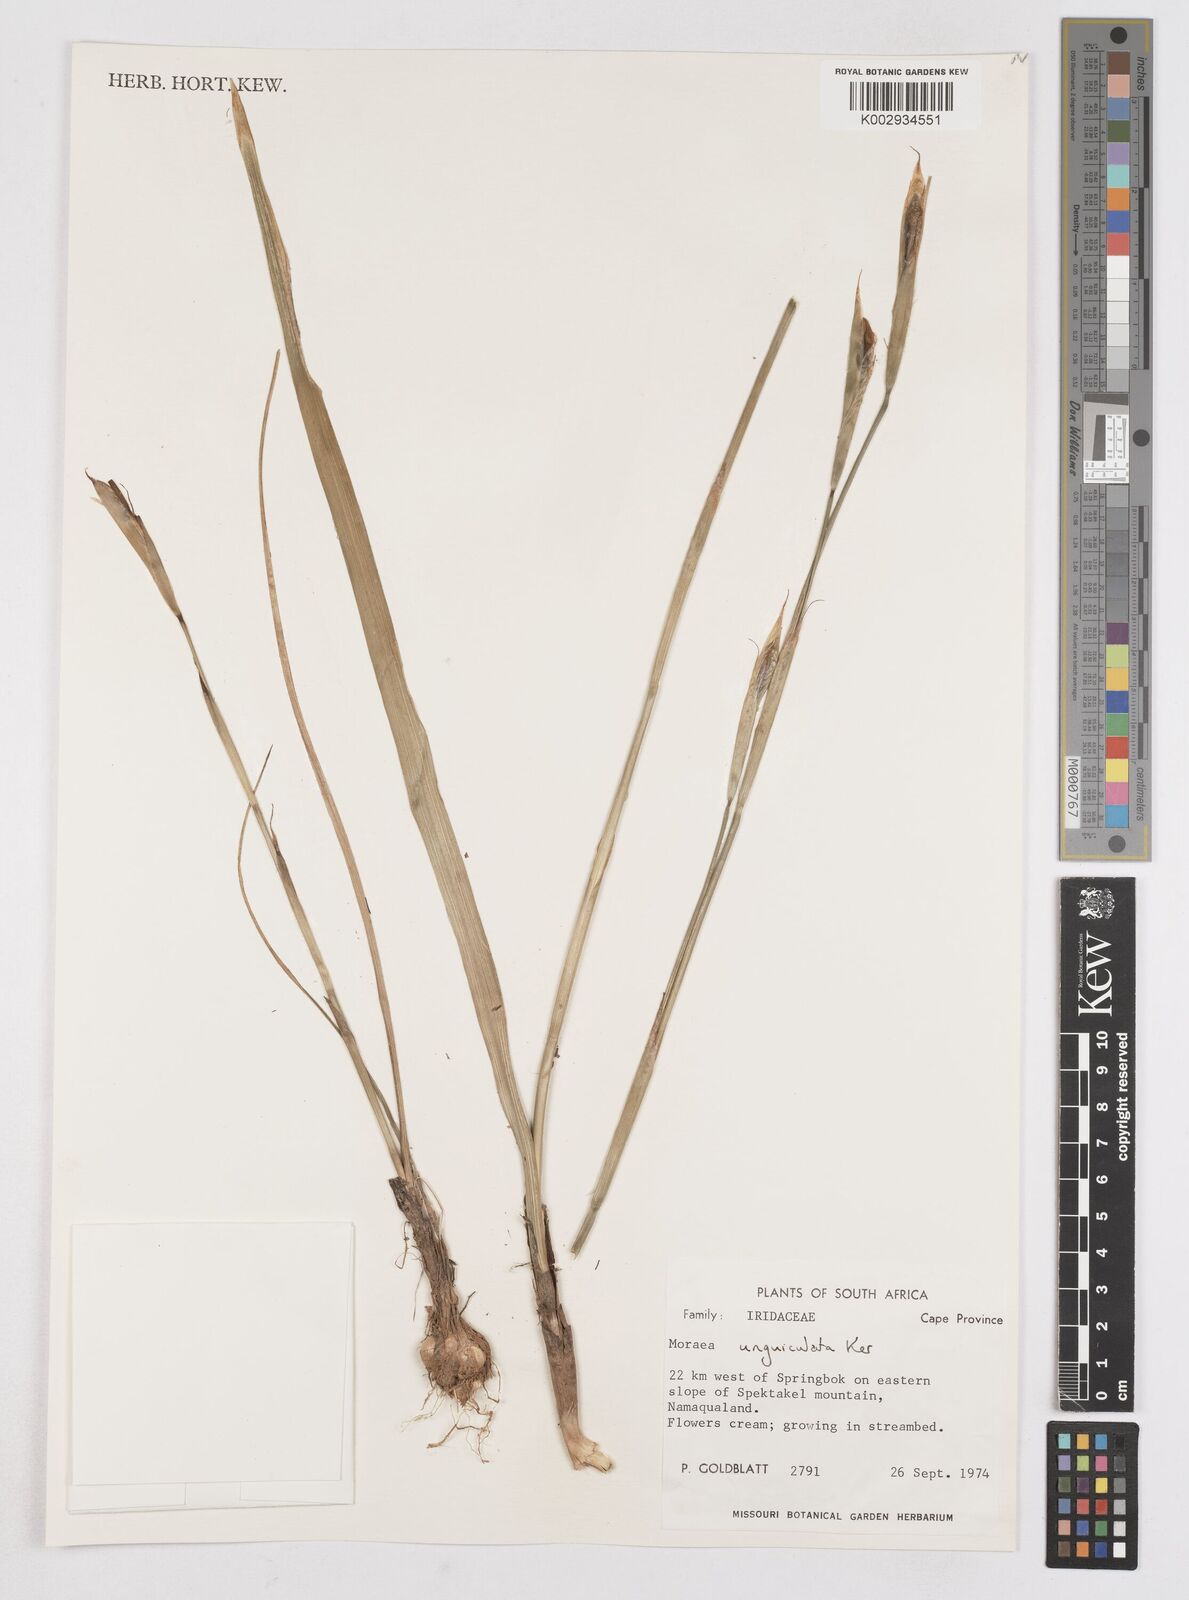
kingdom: Plantae
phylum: Tracheophyta
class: Liliopsida
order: Asparagales
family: Iridaceae
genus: Moraea
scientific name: Moraea unguiculata
